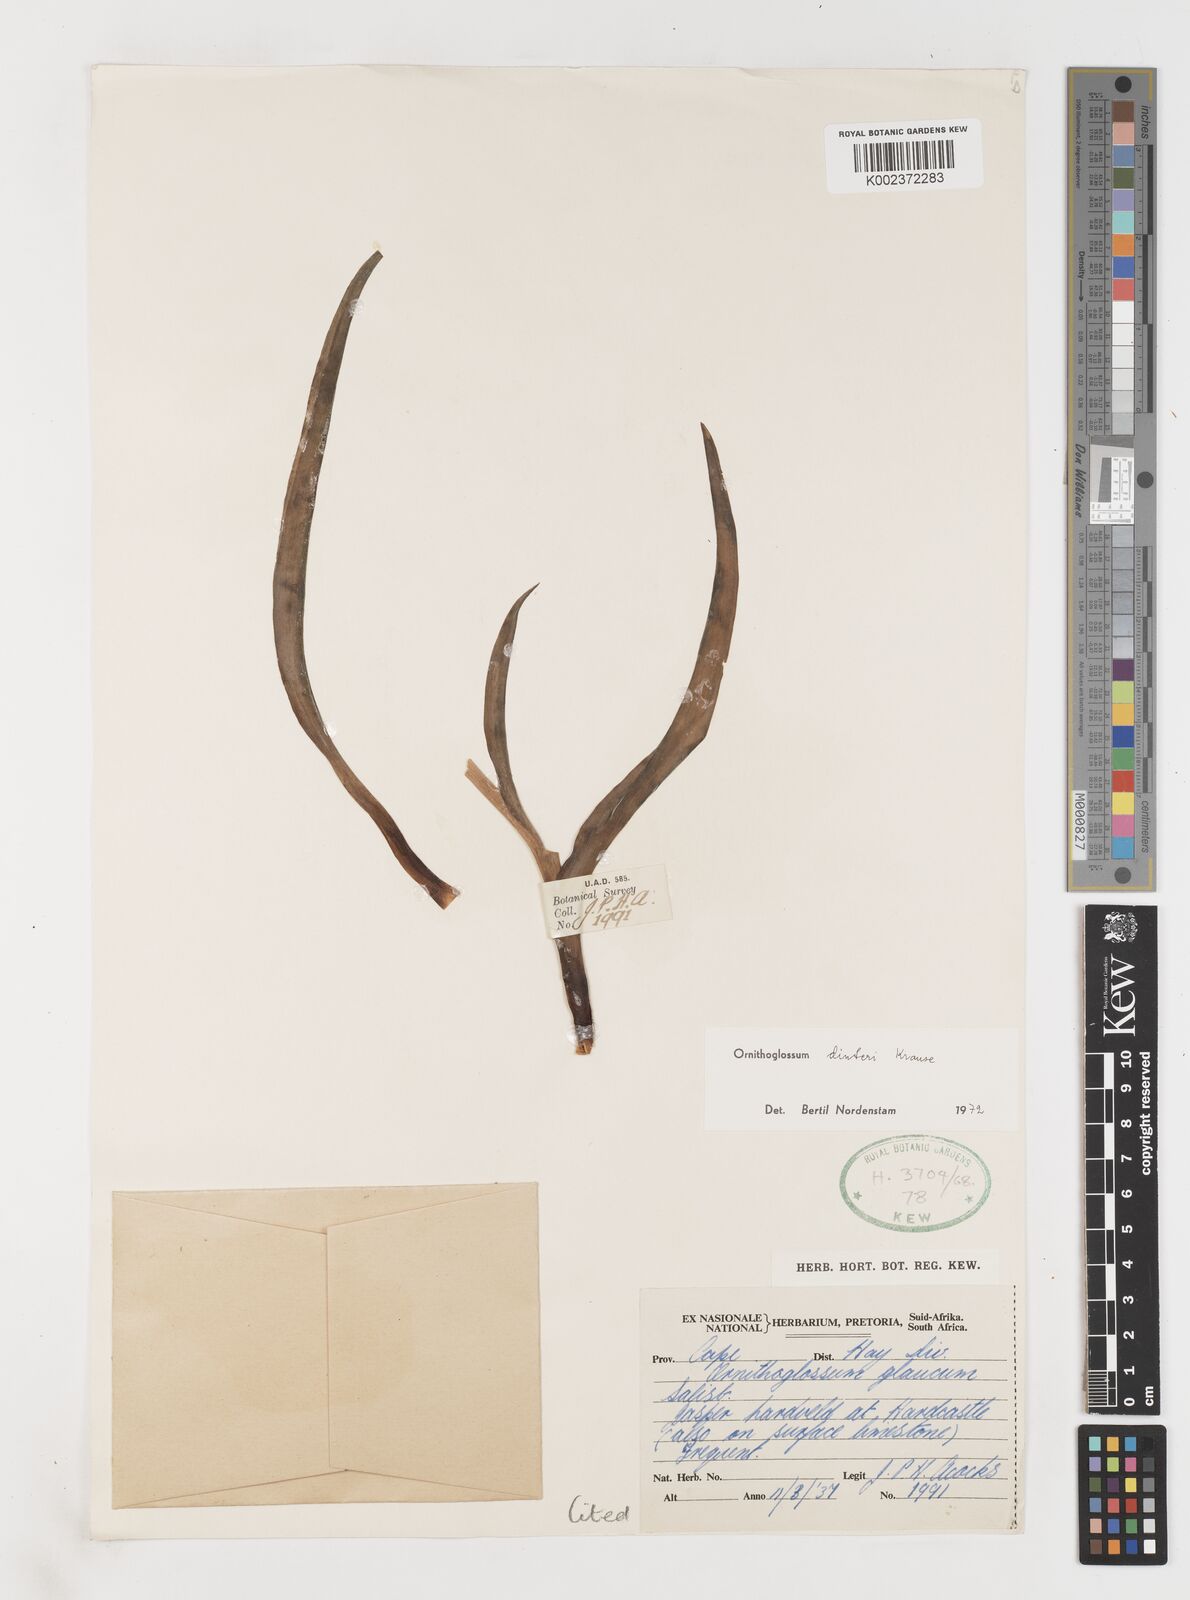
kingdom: Plantae
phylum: Tracheophyta
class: Liliopsida
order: Liliales
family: Colchicaceae
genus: Ornithoglossum
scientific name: Ornithoglossum dinteri
